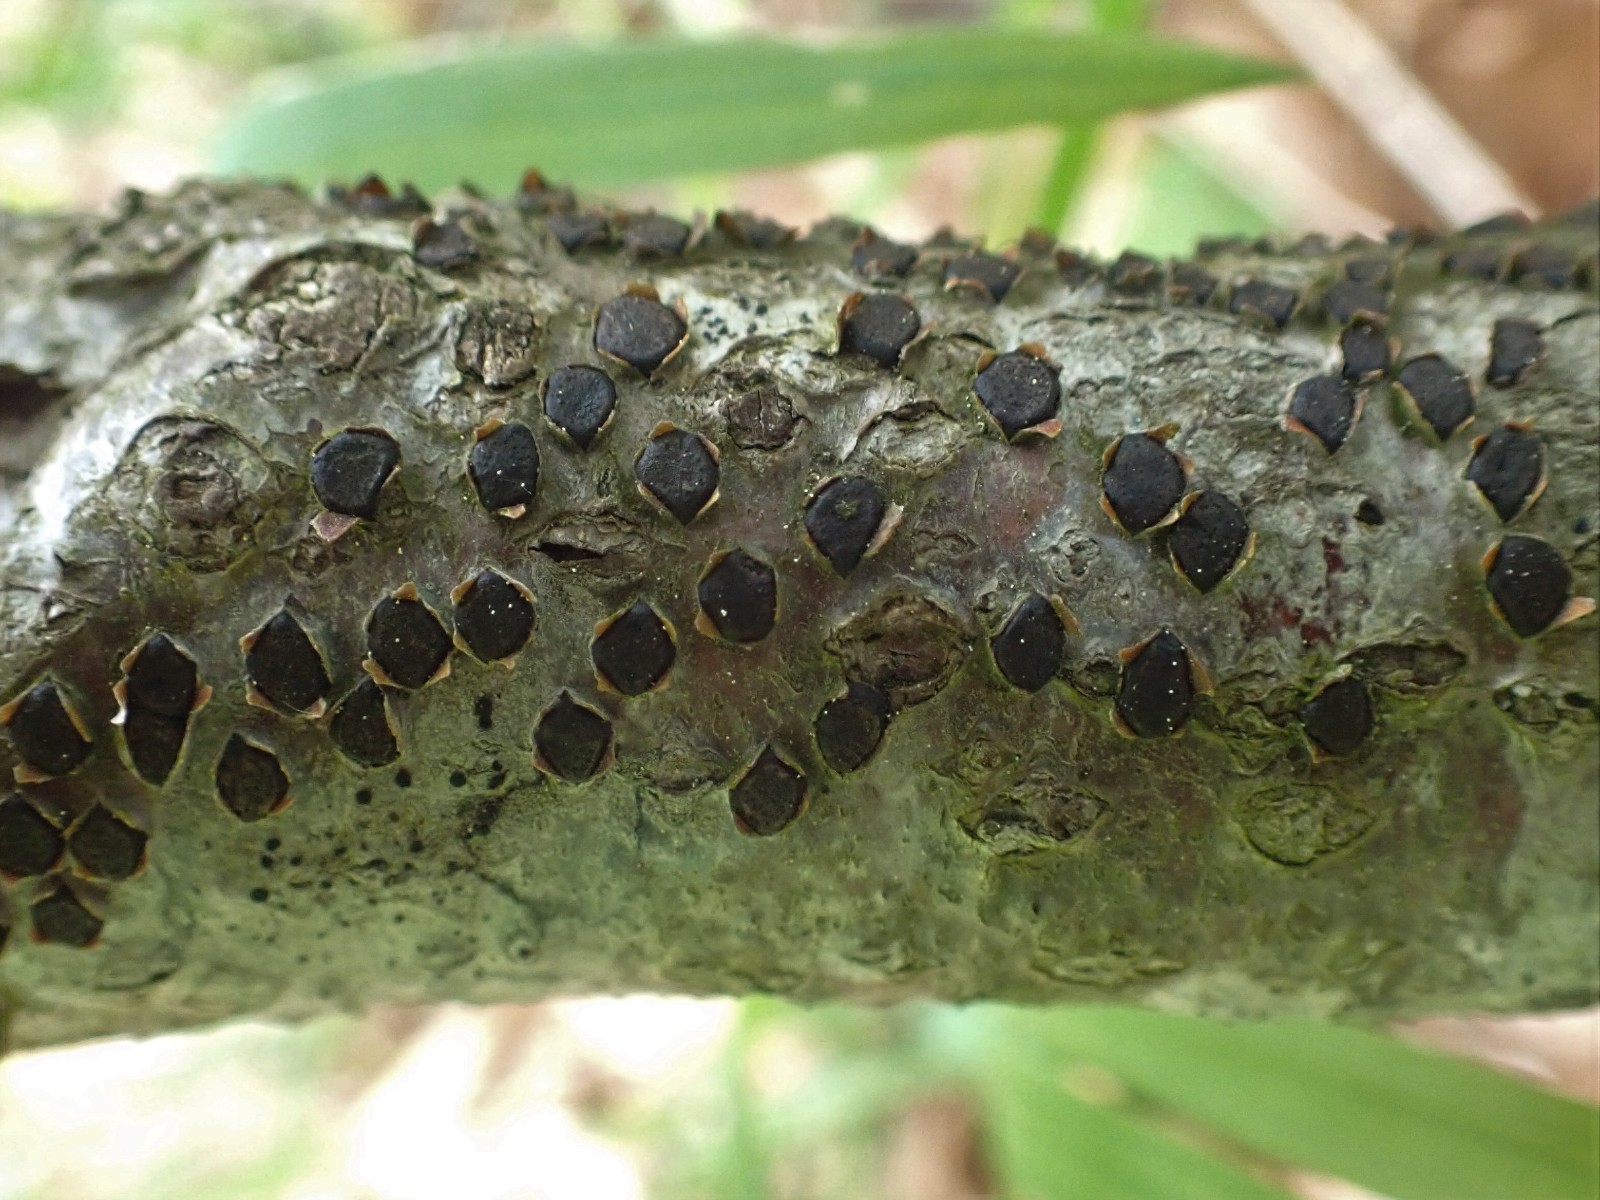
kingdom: Fungi
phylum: Ascomycota
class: Sordariomycetes
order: Xylariales
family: Diatrypaceae
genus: Diatrype
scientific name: Diatrype disciformis
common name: kant-kulskorpe
